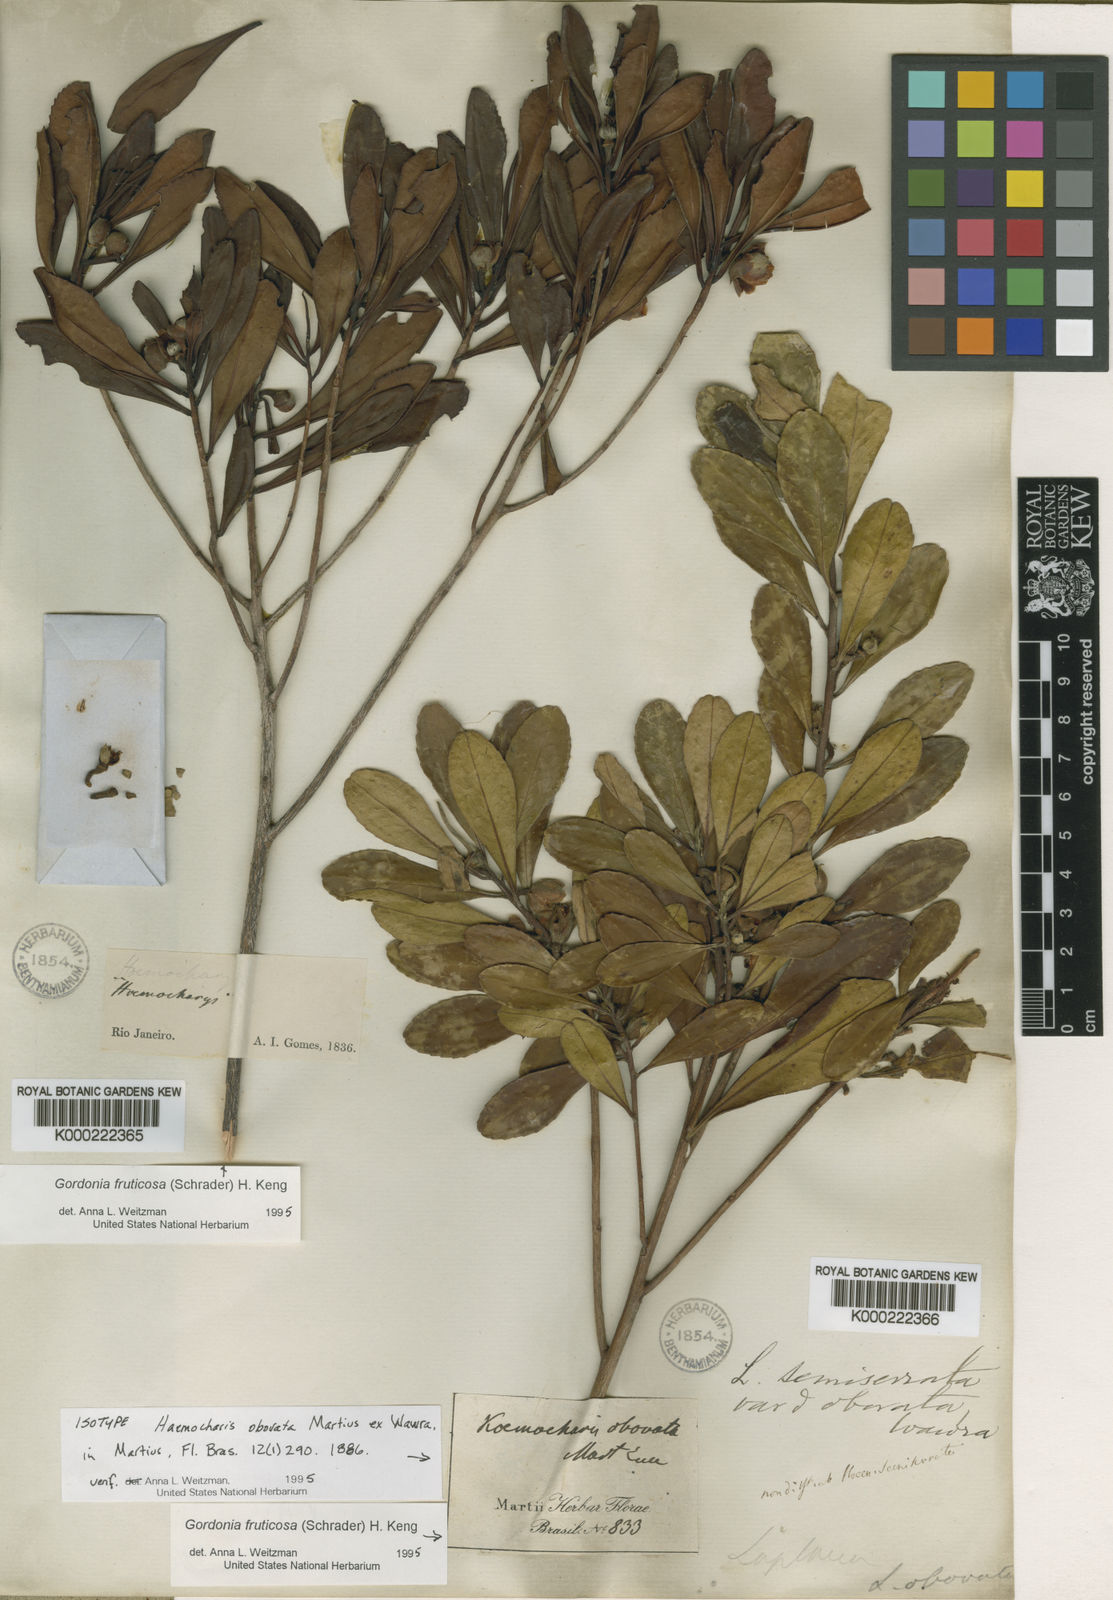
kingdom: Plantae
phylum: Tracheophyta
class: Magnoliopsida
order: Ericales
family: Theaceae
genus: Gordonia
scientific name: Gordonia fruticosa
